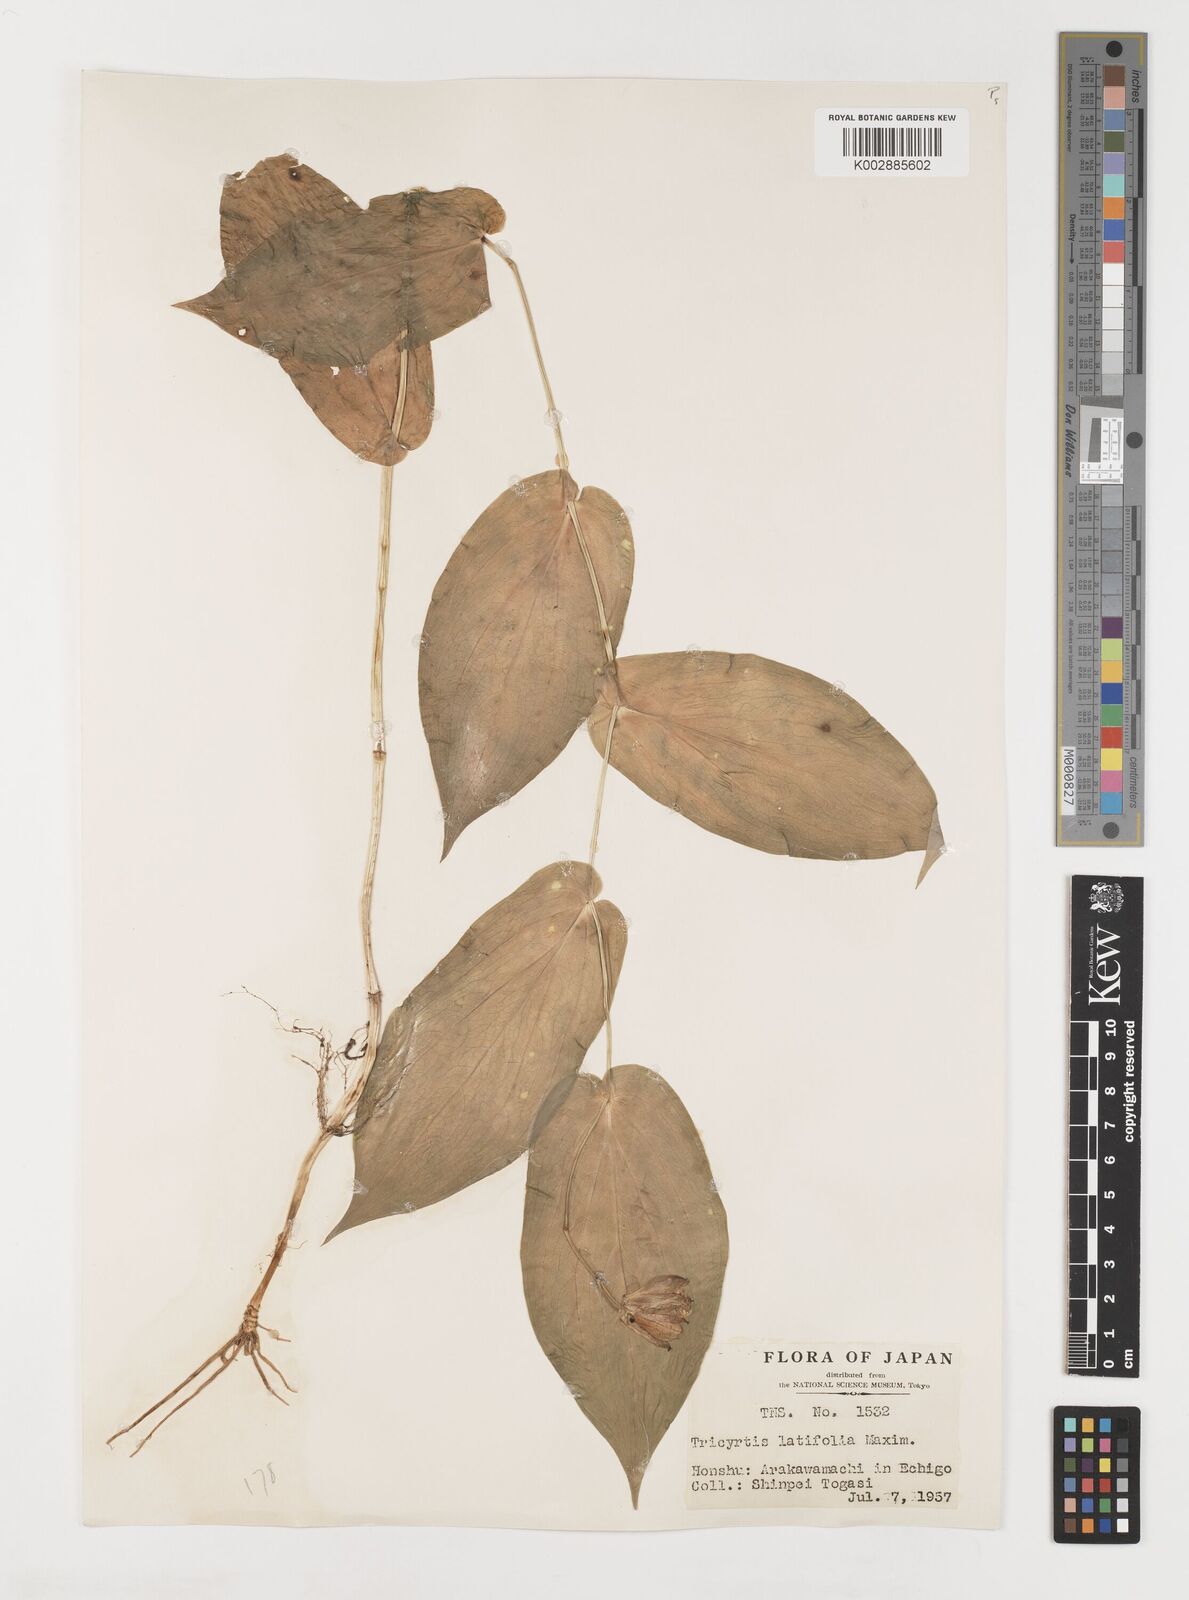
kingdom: Plantae
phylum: Tracheophyta
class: Liliopsida
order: Liliales
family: Liliaceae
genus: Tricyrtis
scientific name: Tricyrtis latifolia
